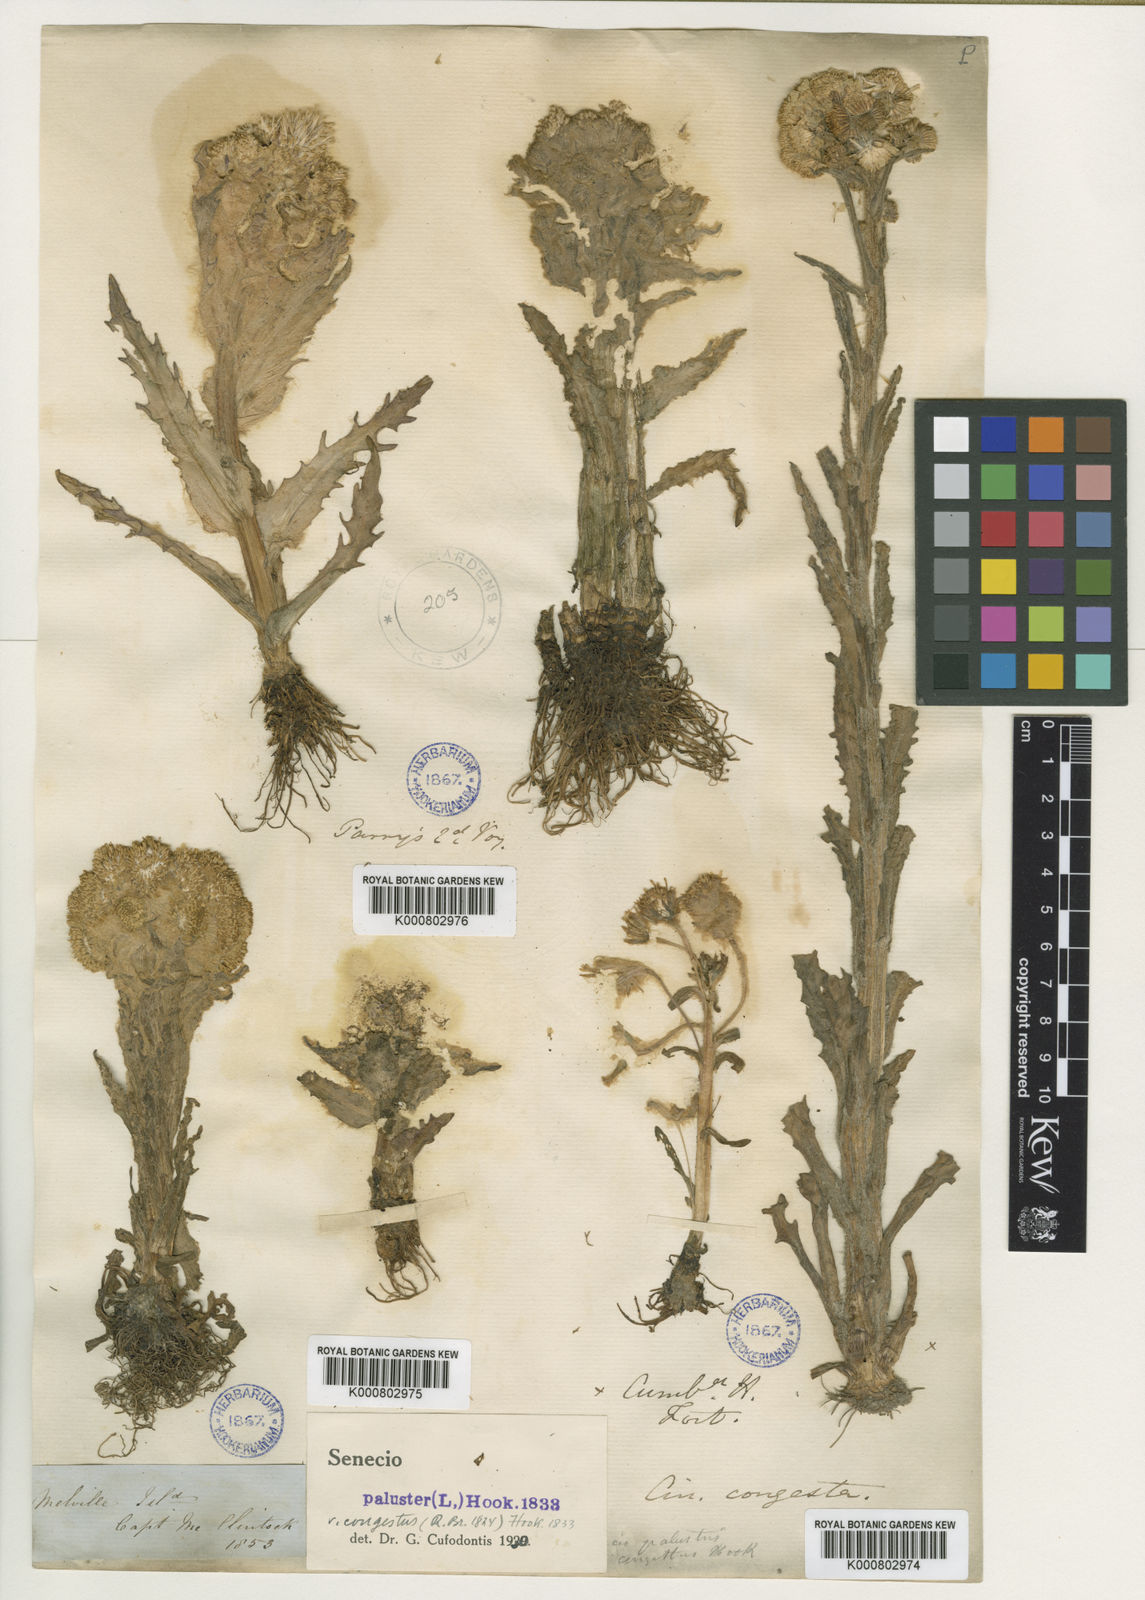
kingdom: Plantae
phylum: Tracheophyta
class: Magnoliopsida
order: Asterales
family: Asteraceae
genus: Tephroseris
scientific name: Tephroseris
